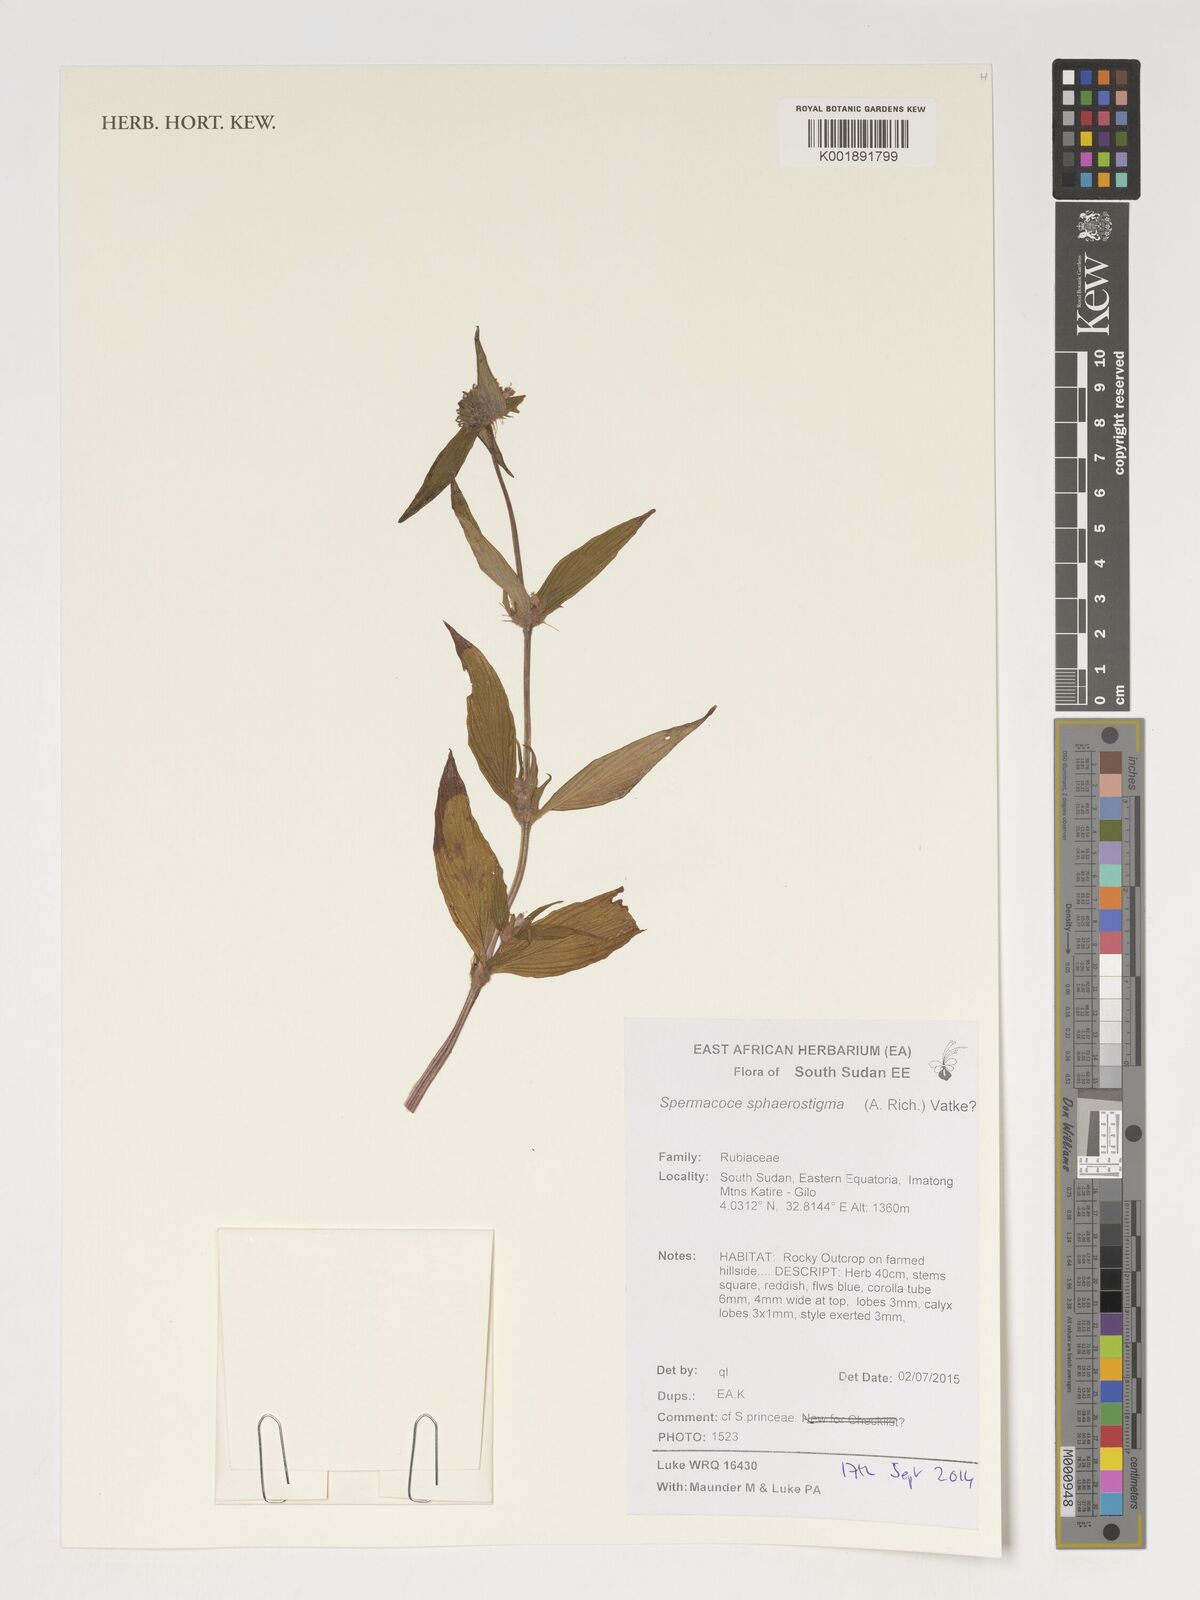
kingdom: Plantae
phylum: Tracheophyta
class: Magnoliopsida
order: Gentianales
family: Rubiaceae
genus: Spermacoce
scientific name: Spermacoce sphaerostigma
